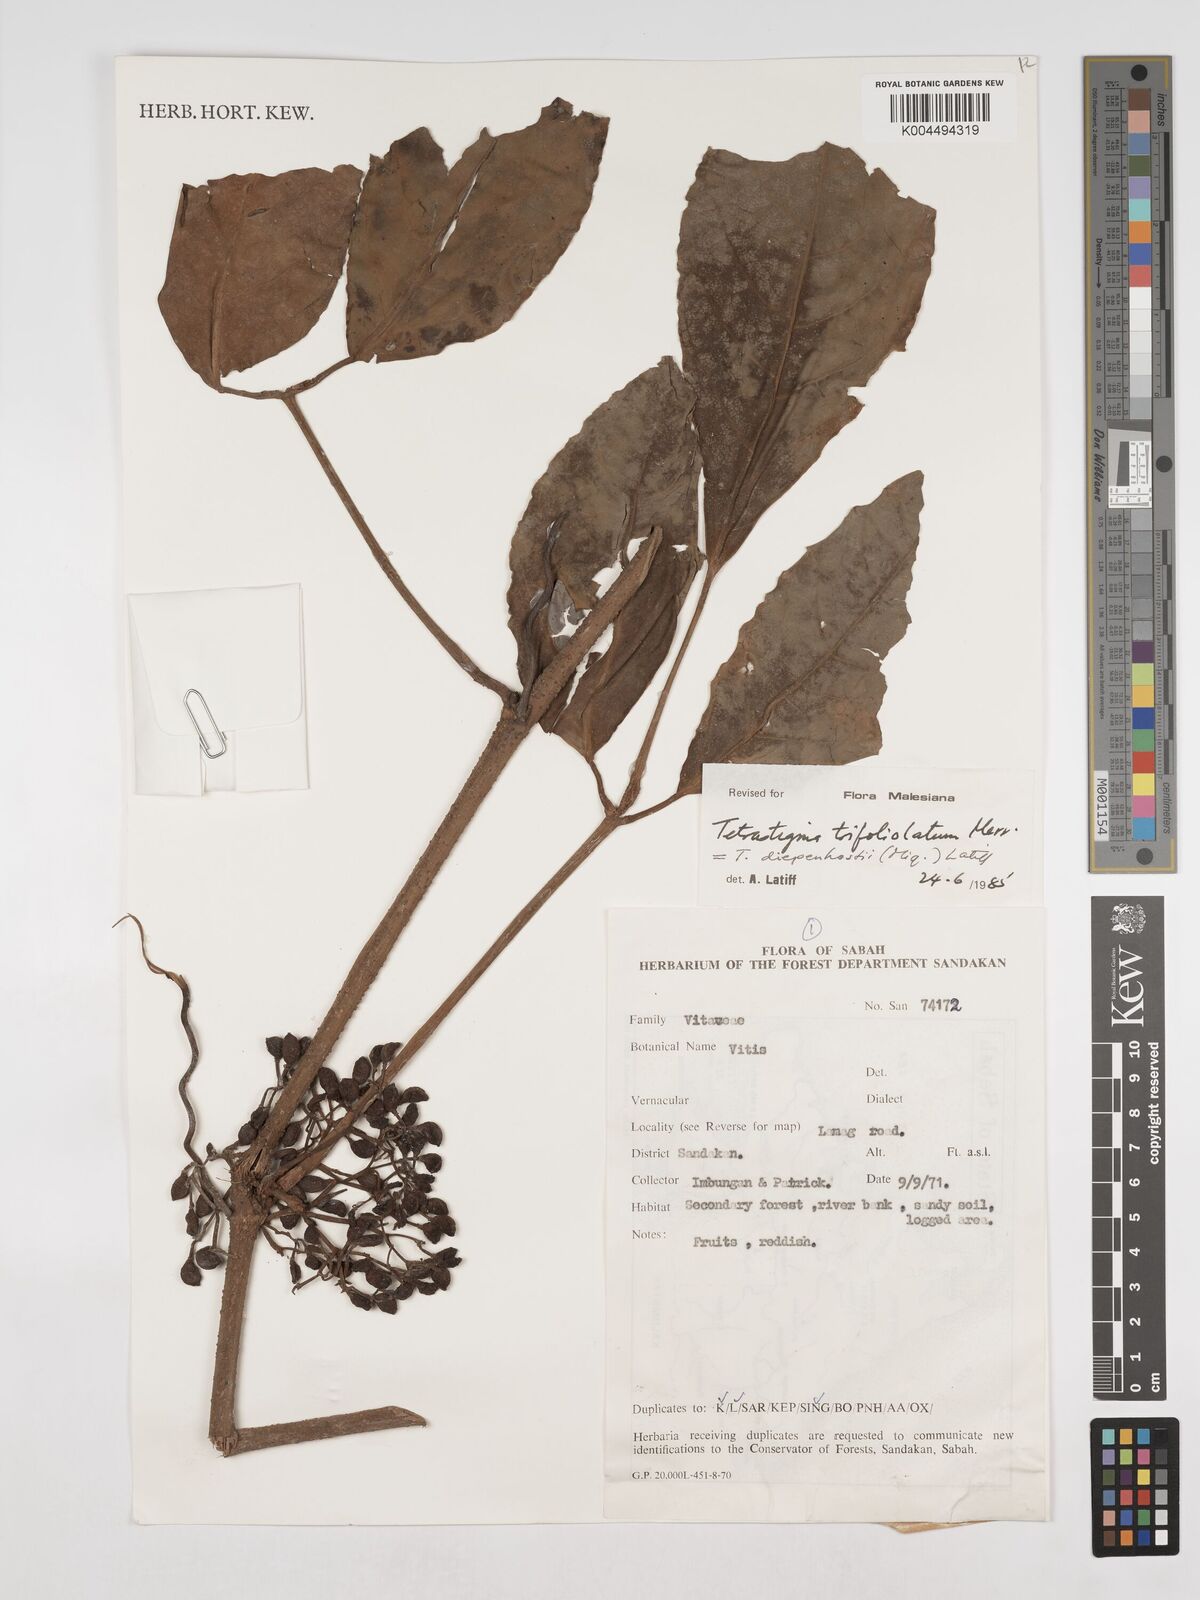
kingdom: Plantae
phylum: Tracheophyta
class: Magnoliopsida
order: Vitales
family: Vitaceae
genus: Tetrastigma
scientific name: Tetrastigma trifoliolatum
